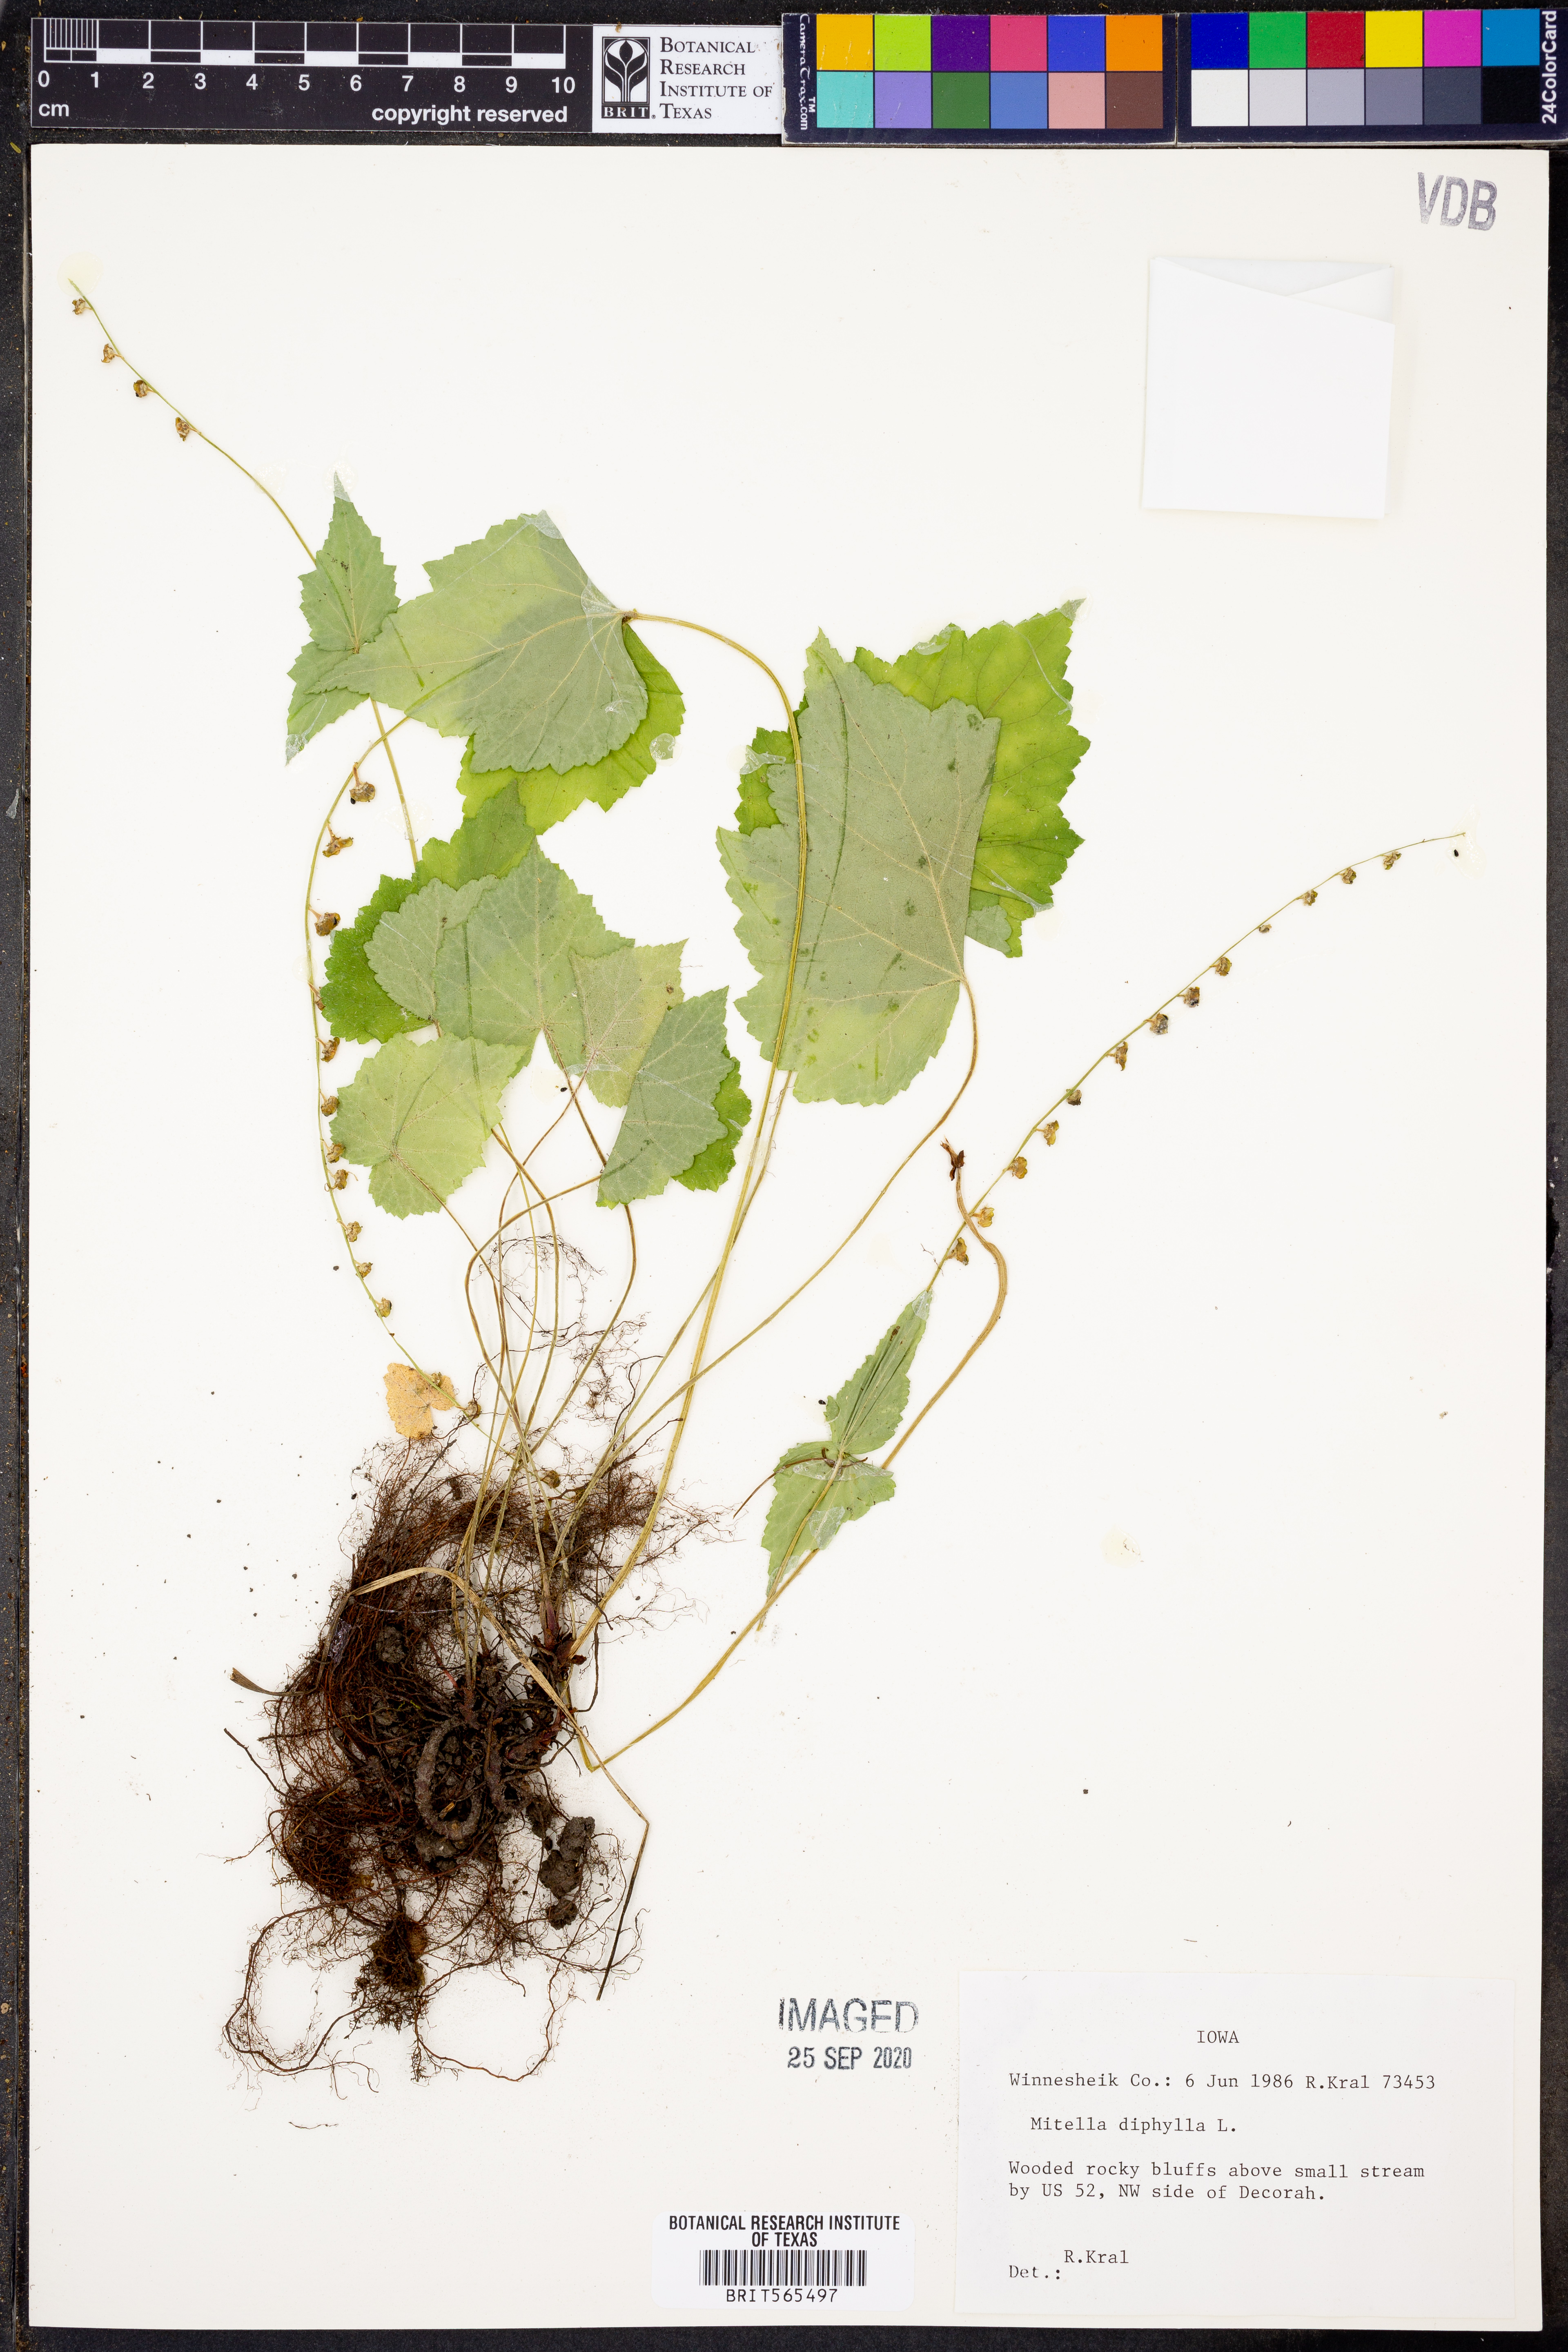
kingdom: Plantae
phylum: Tracheophyta
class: Magnoliopsida
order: Saxifragales
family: Saxifragaceae
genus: Mitella
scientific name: Mitella diphylla
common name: Coolwort
